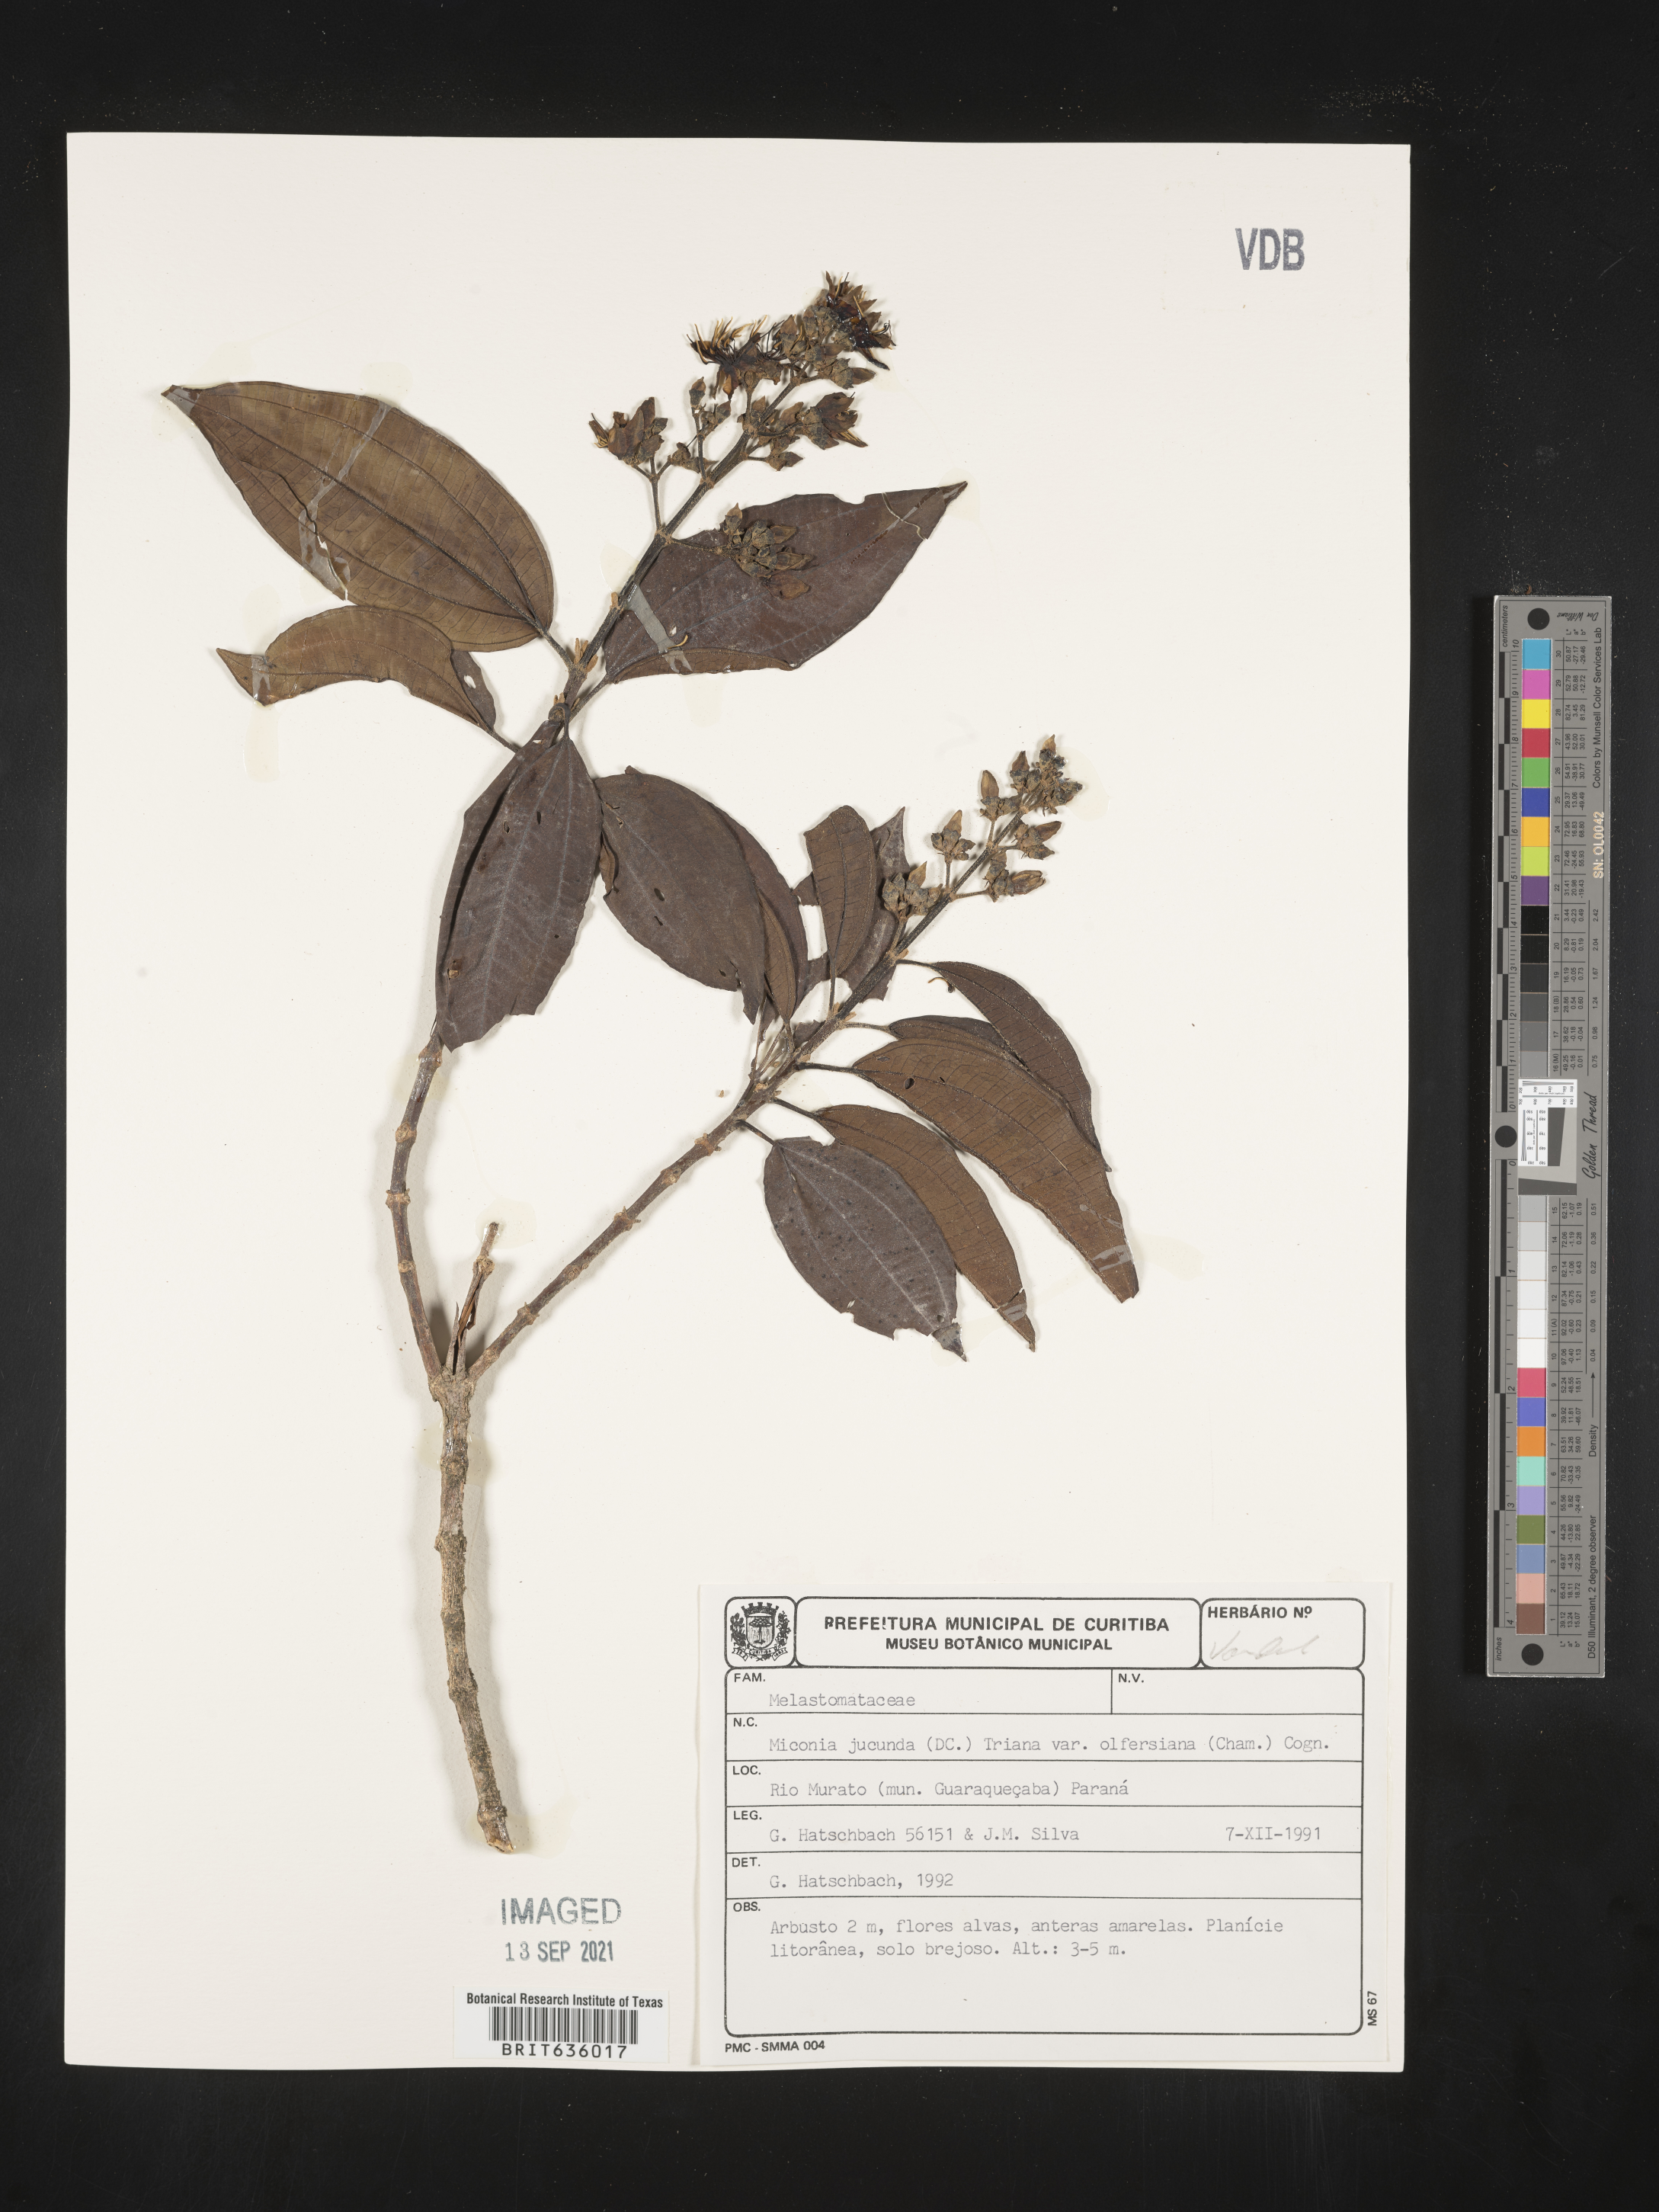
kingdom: Plantae
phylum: Tracheophyta
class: Magnoliopsida
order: Myrtales
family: Melastomataceae
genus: Miconia
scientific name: Miconia
